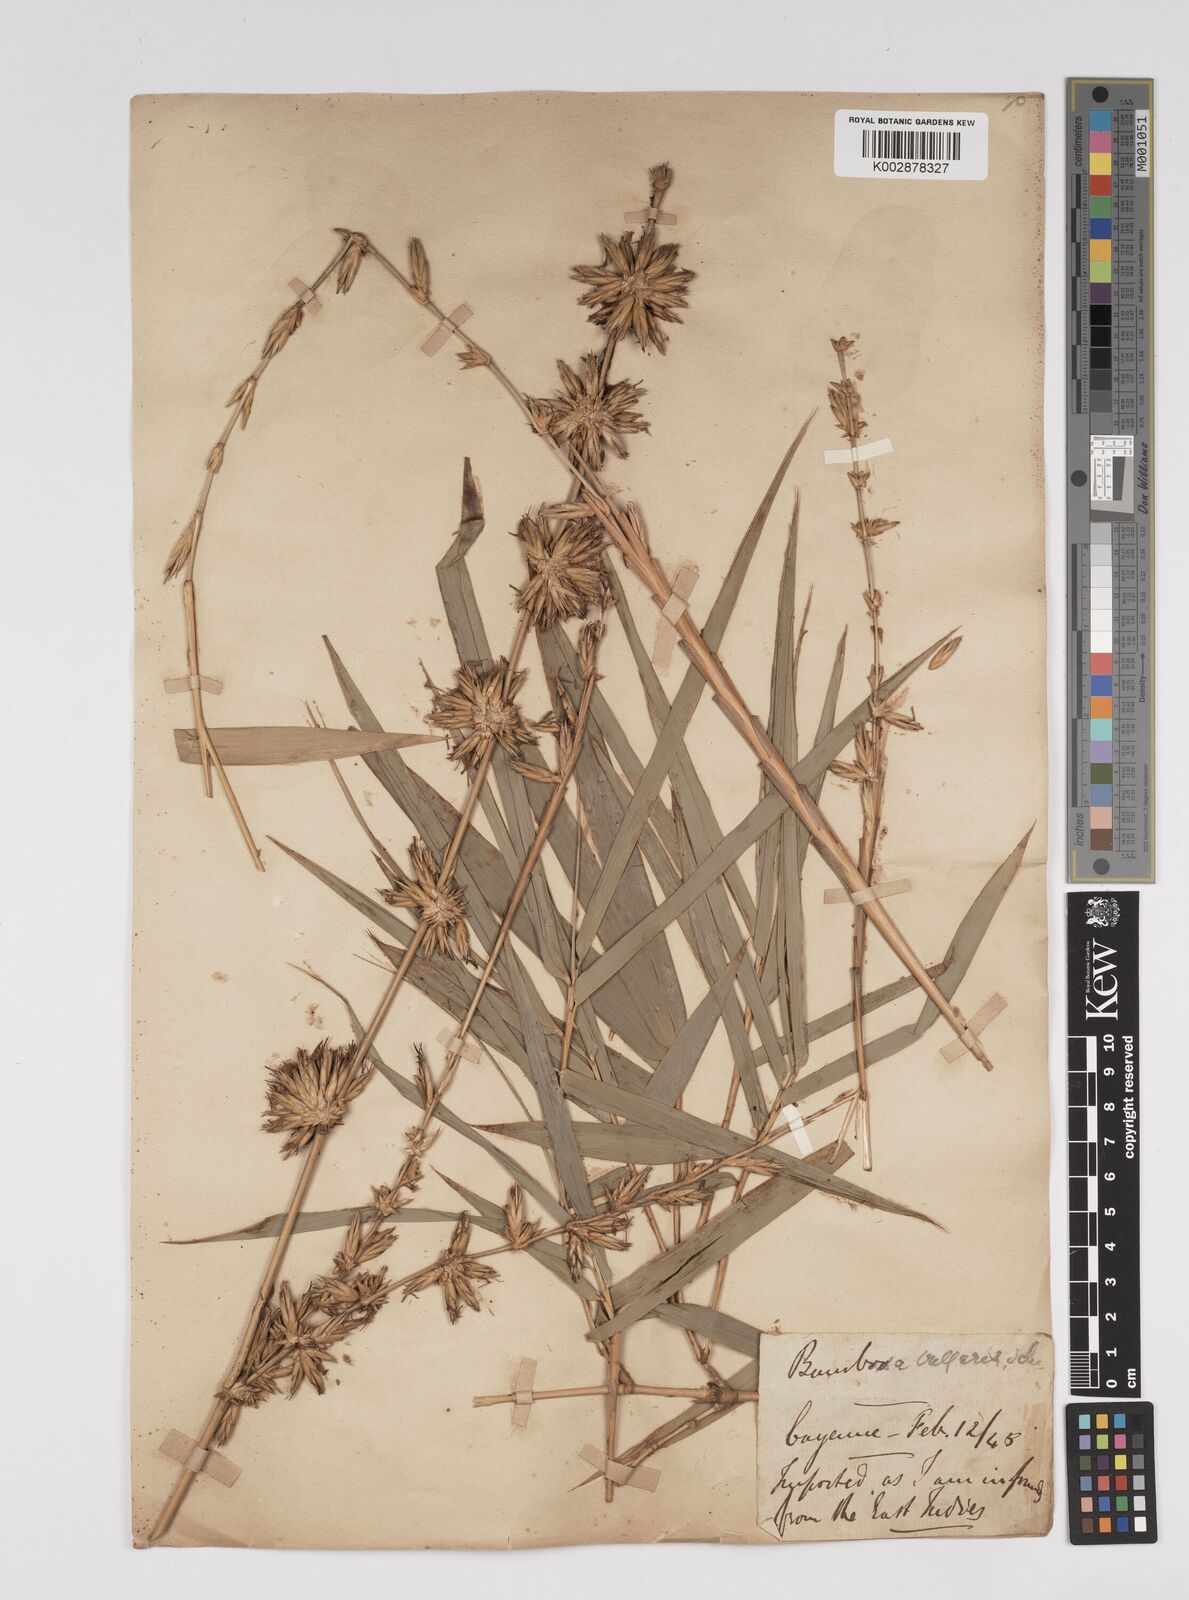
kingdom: Plantae
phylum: Tracheophyta
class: Liliopsida
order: Poales
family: Poaceae
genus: Bambusa
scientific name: Bambusa vulgaris
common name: Common bamboo
